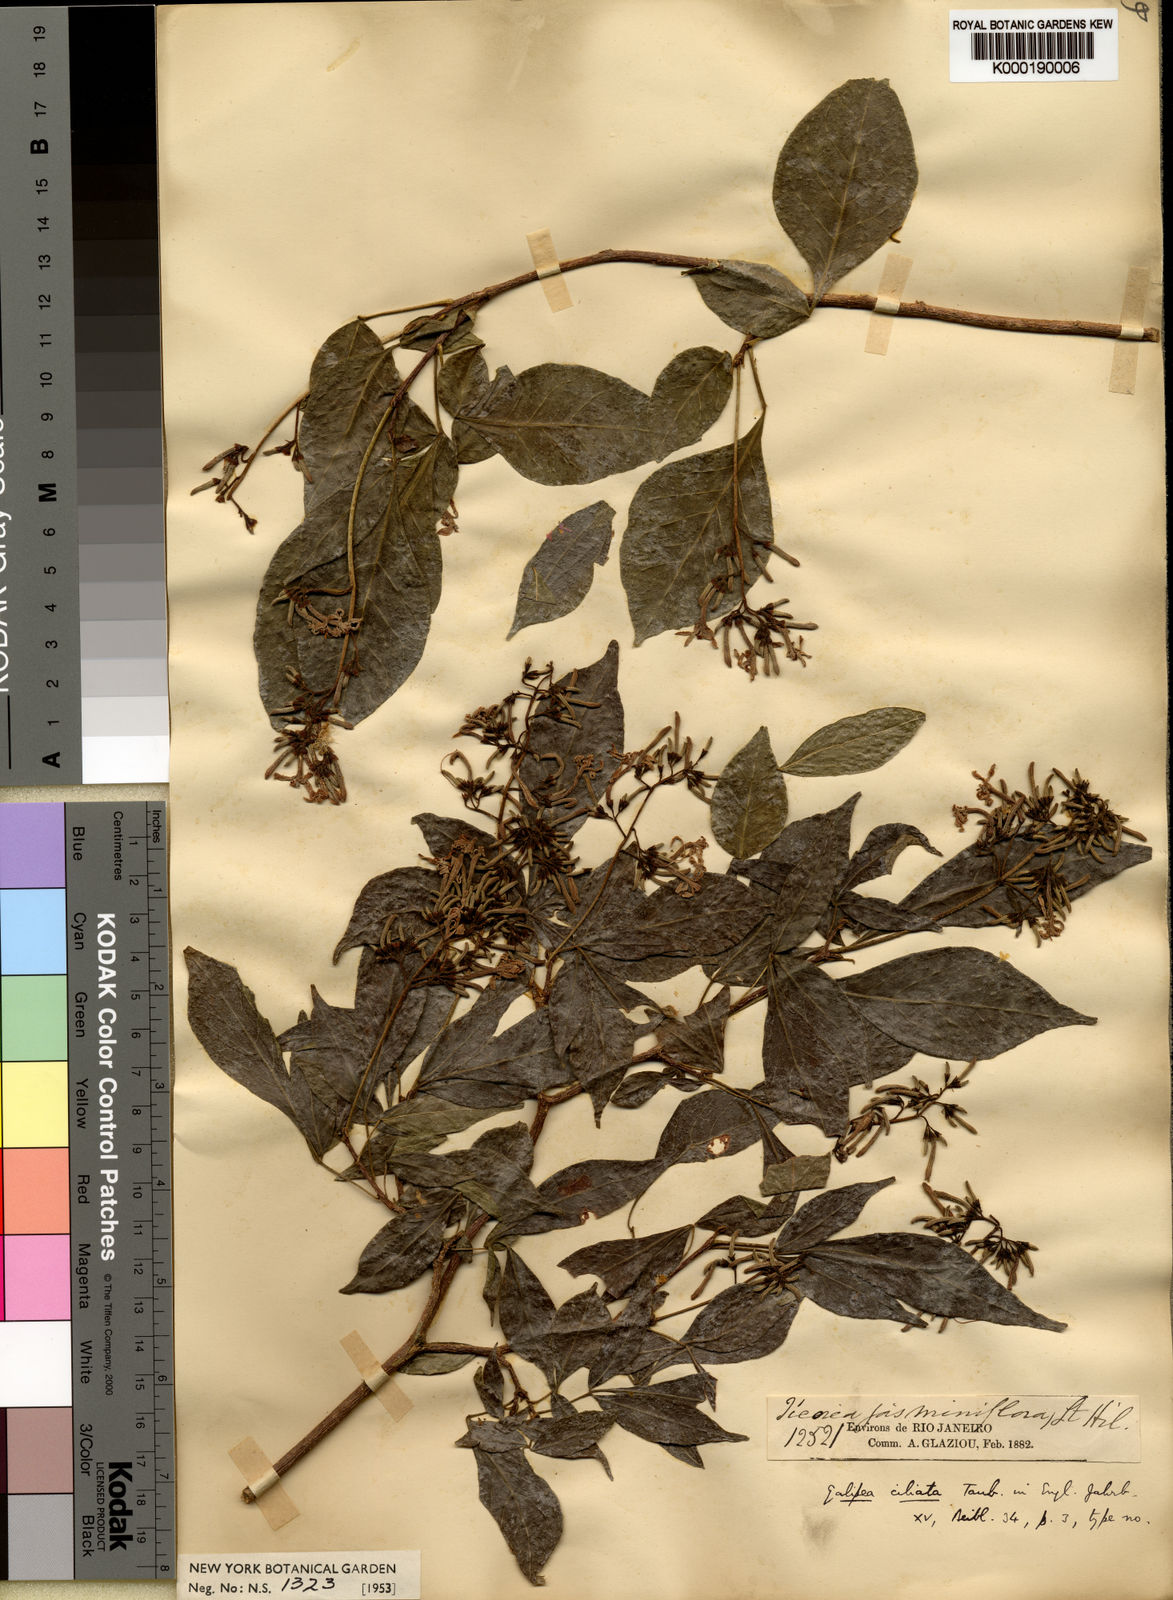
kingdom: Plantae
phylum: Tracheophyta
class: Magnoliopsida
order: Sapindales
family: Rutaceae
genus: Galipea
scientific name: Galipea ciliata
